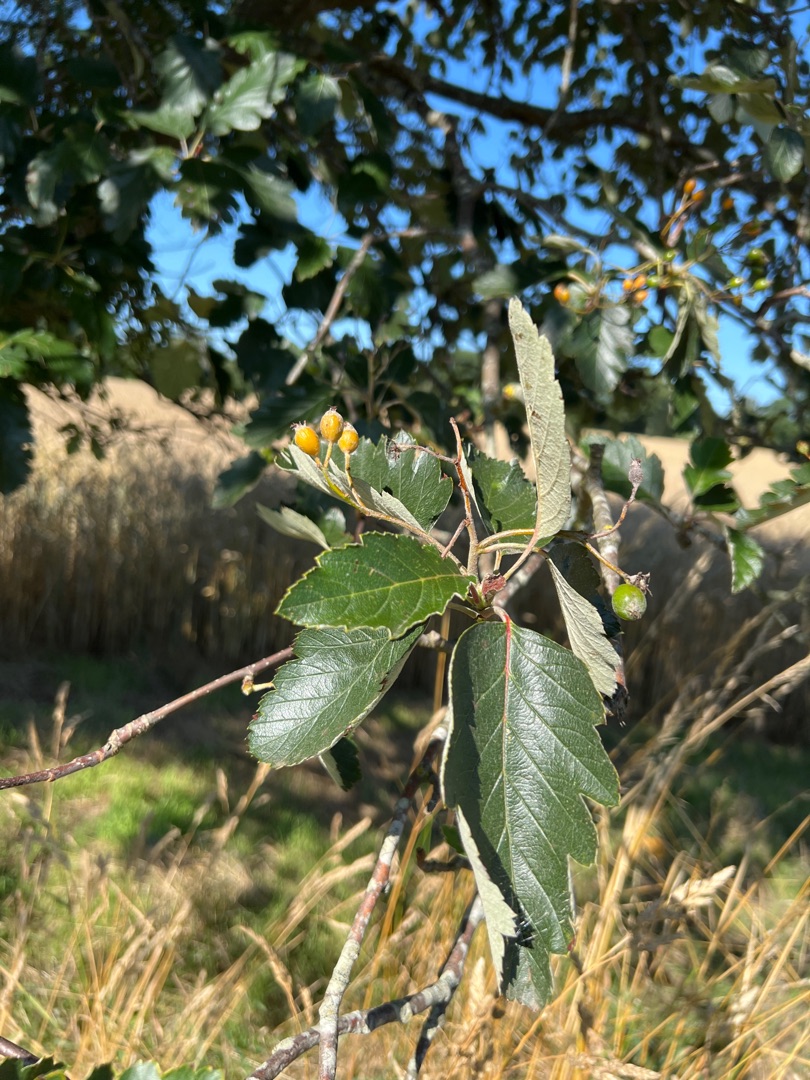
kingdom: Plantae
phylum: Tracheophyta
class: Magnoliopsida
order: Rosales
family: Rosaceae
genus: Scandosorbus
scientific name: Scandosorbus intermedia
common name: Selje-røn
